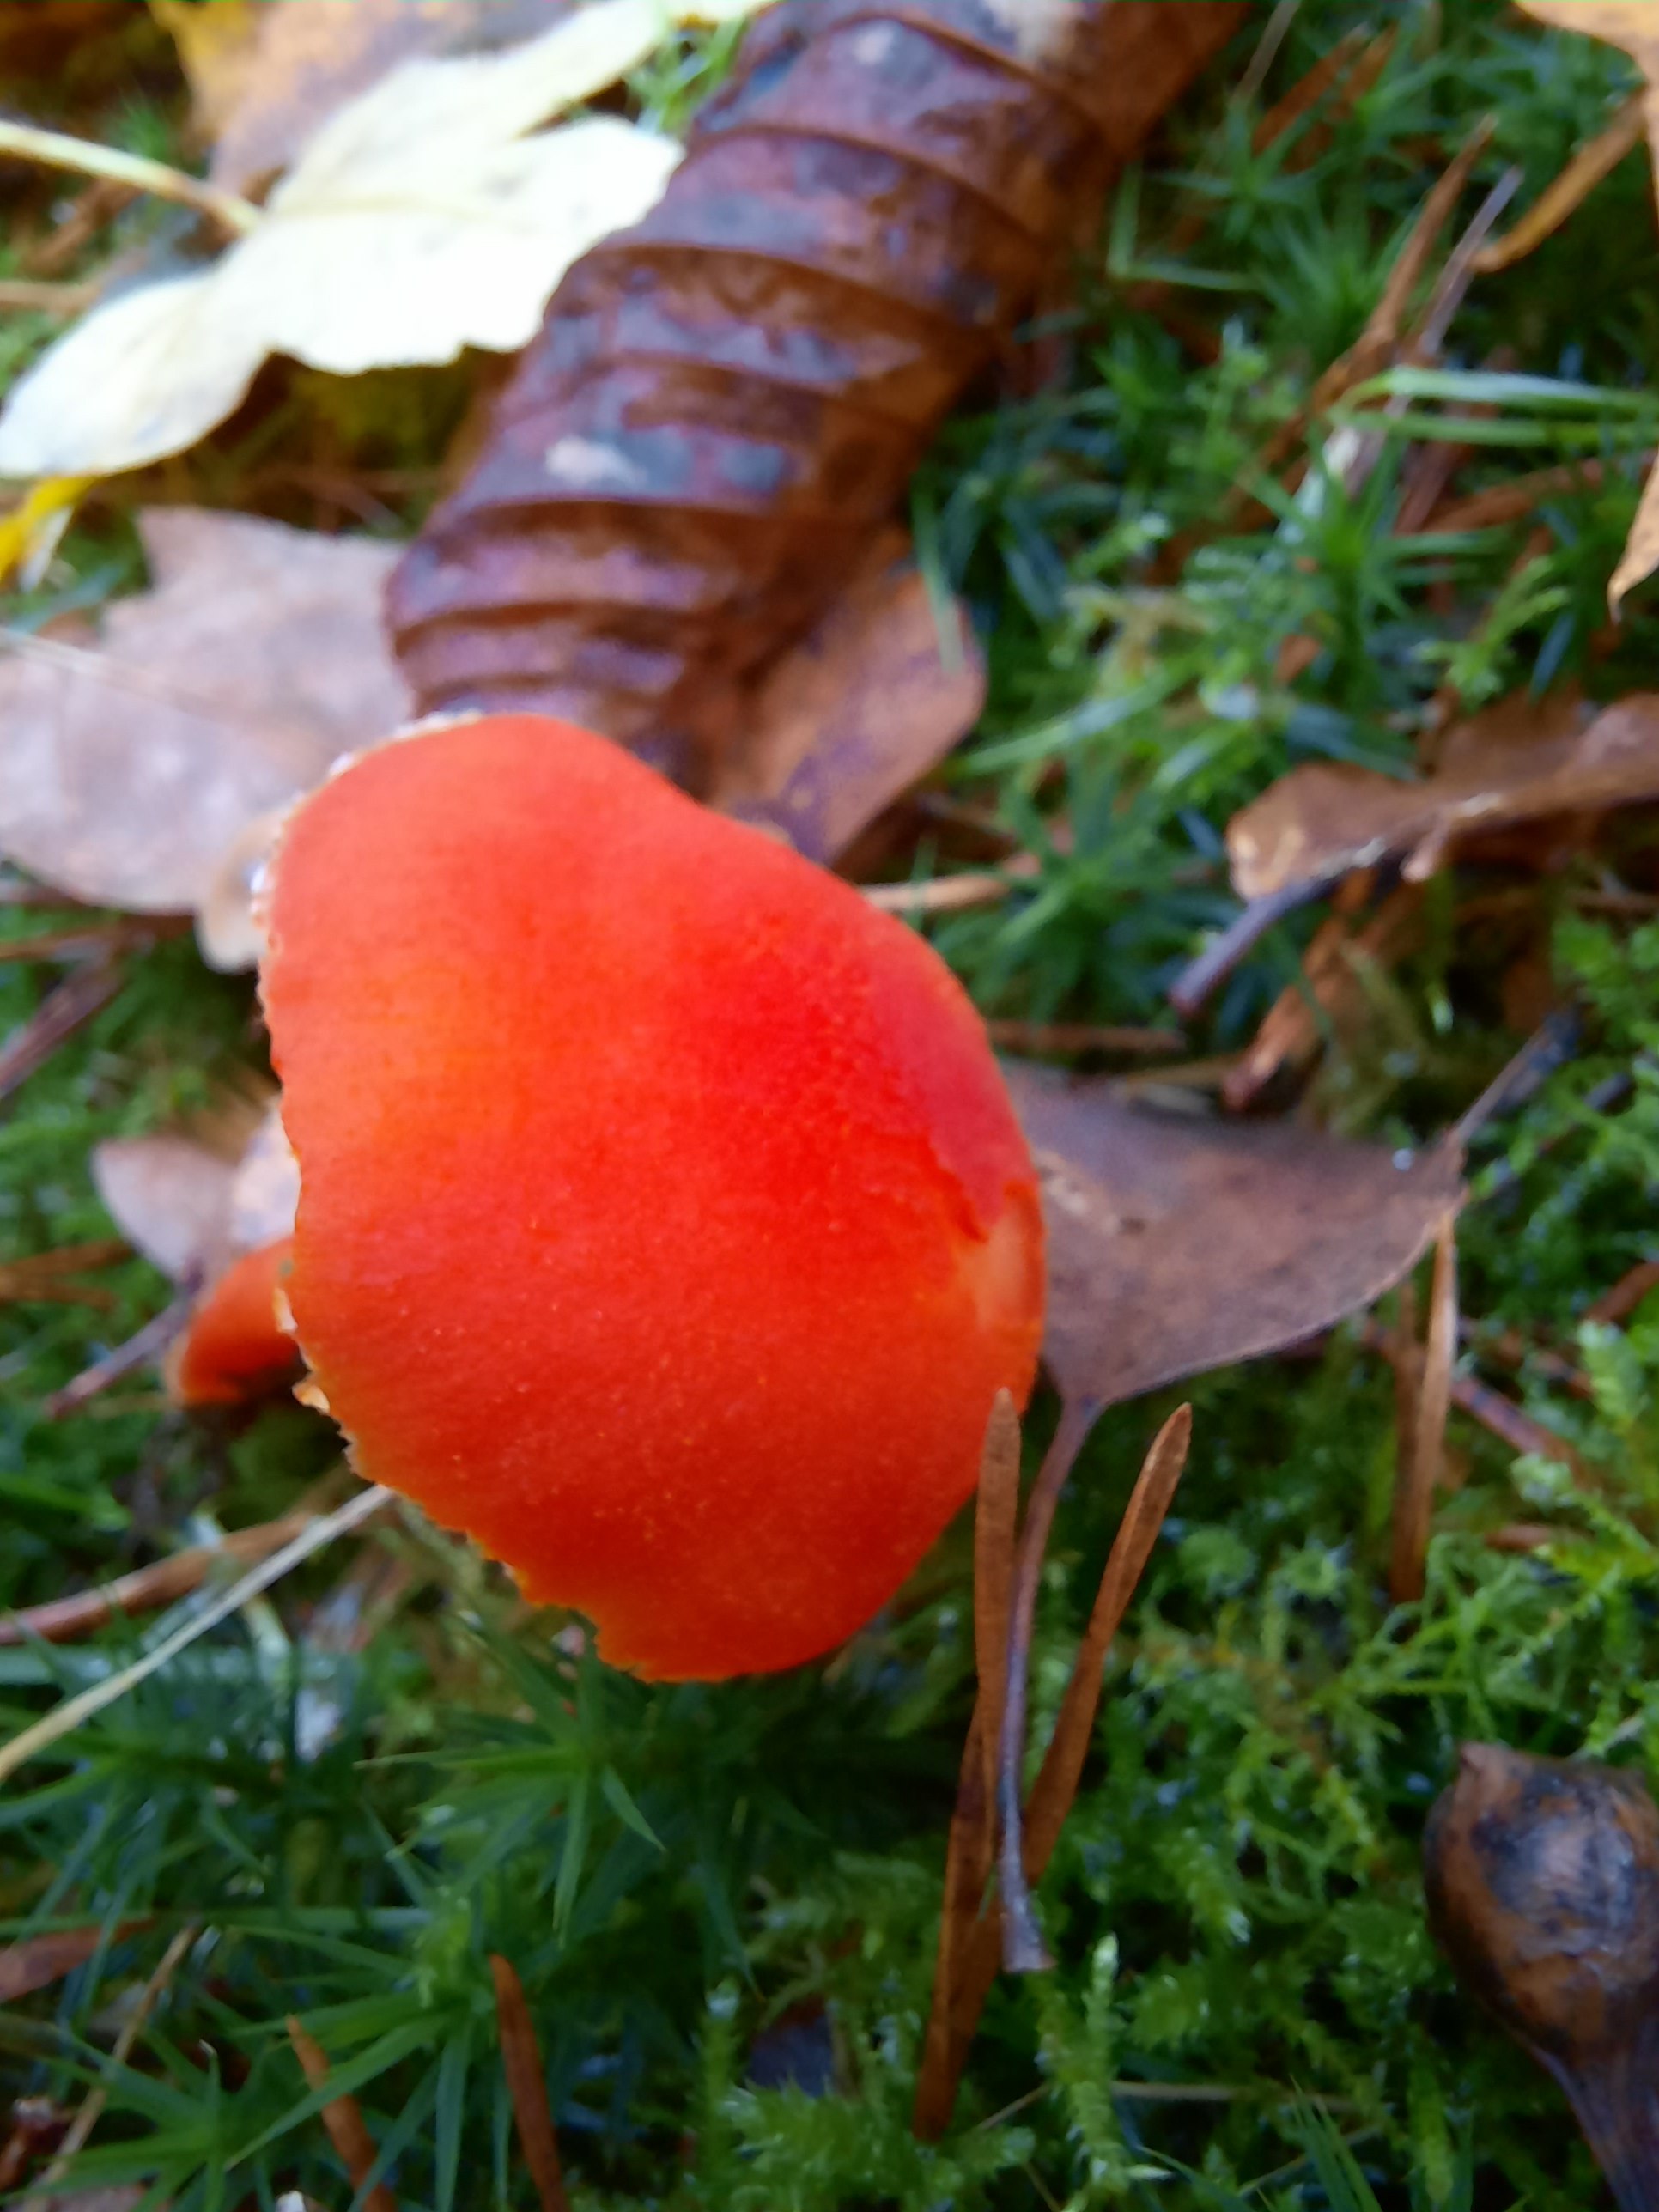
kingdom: Fungi
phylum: Basidiomycota
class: Agaricomycetes
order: Agaricales
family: Hygrophoraceae
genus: Hygrocybe
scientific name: Hygrocybe miniata
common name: mønje-vokshat
